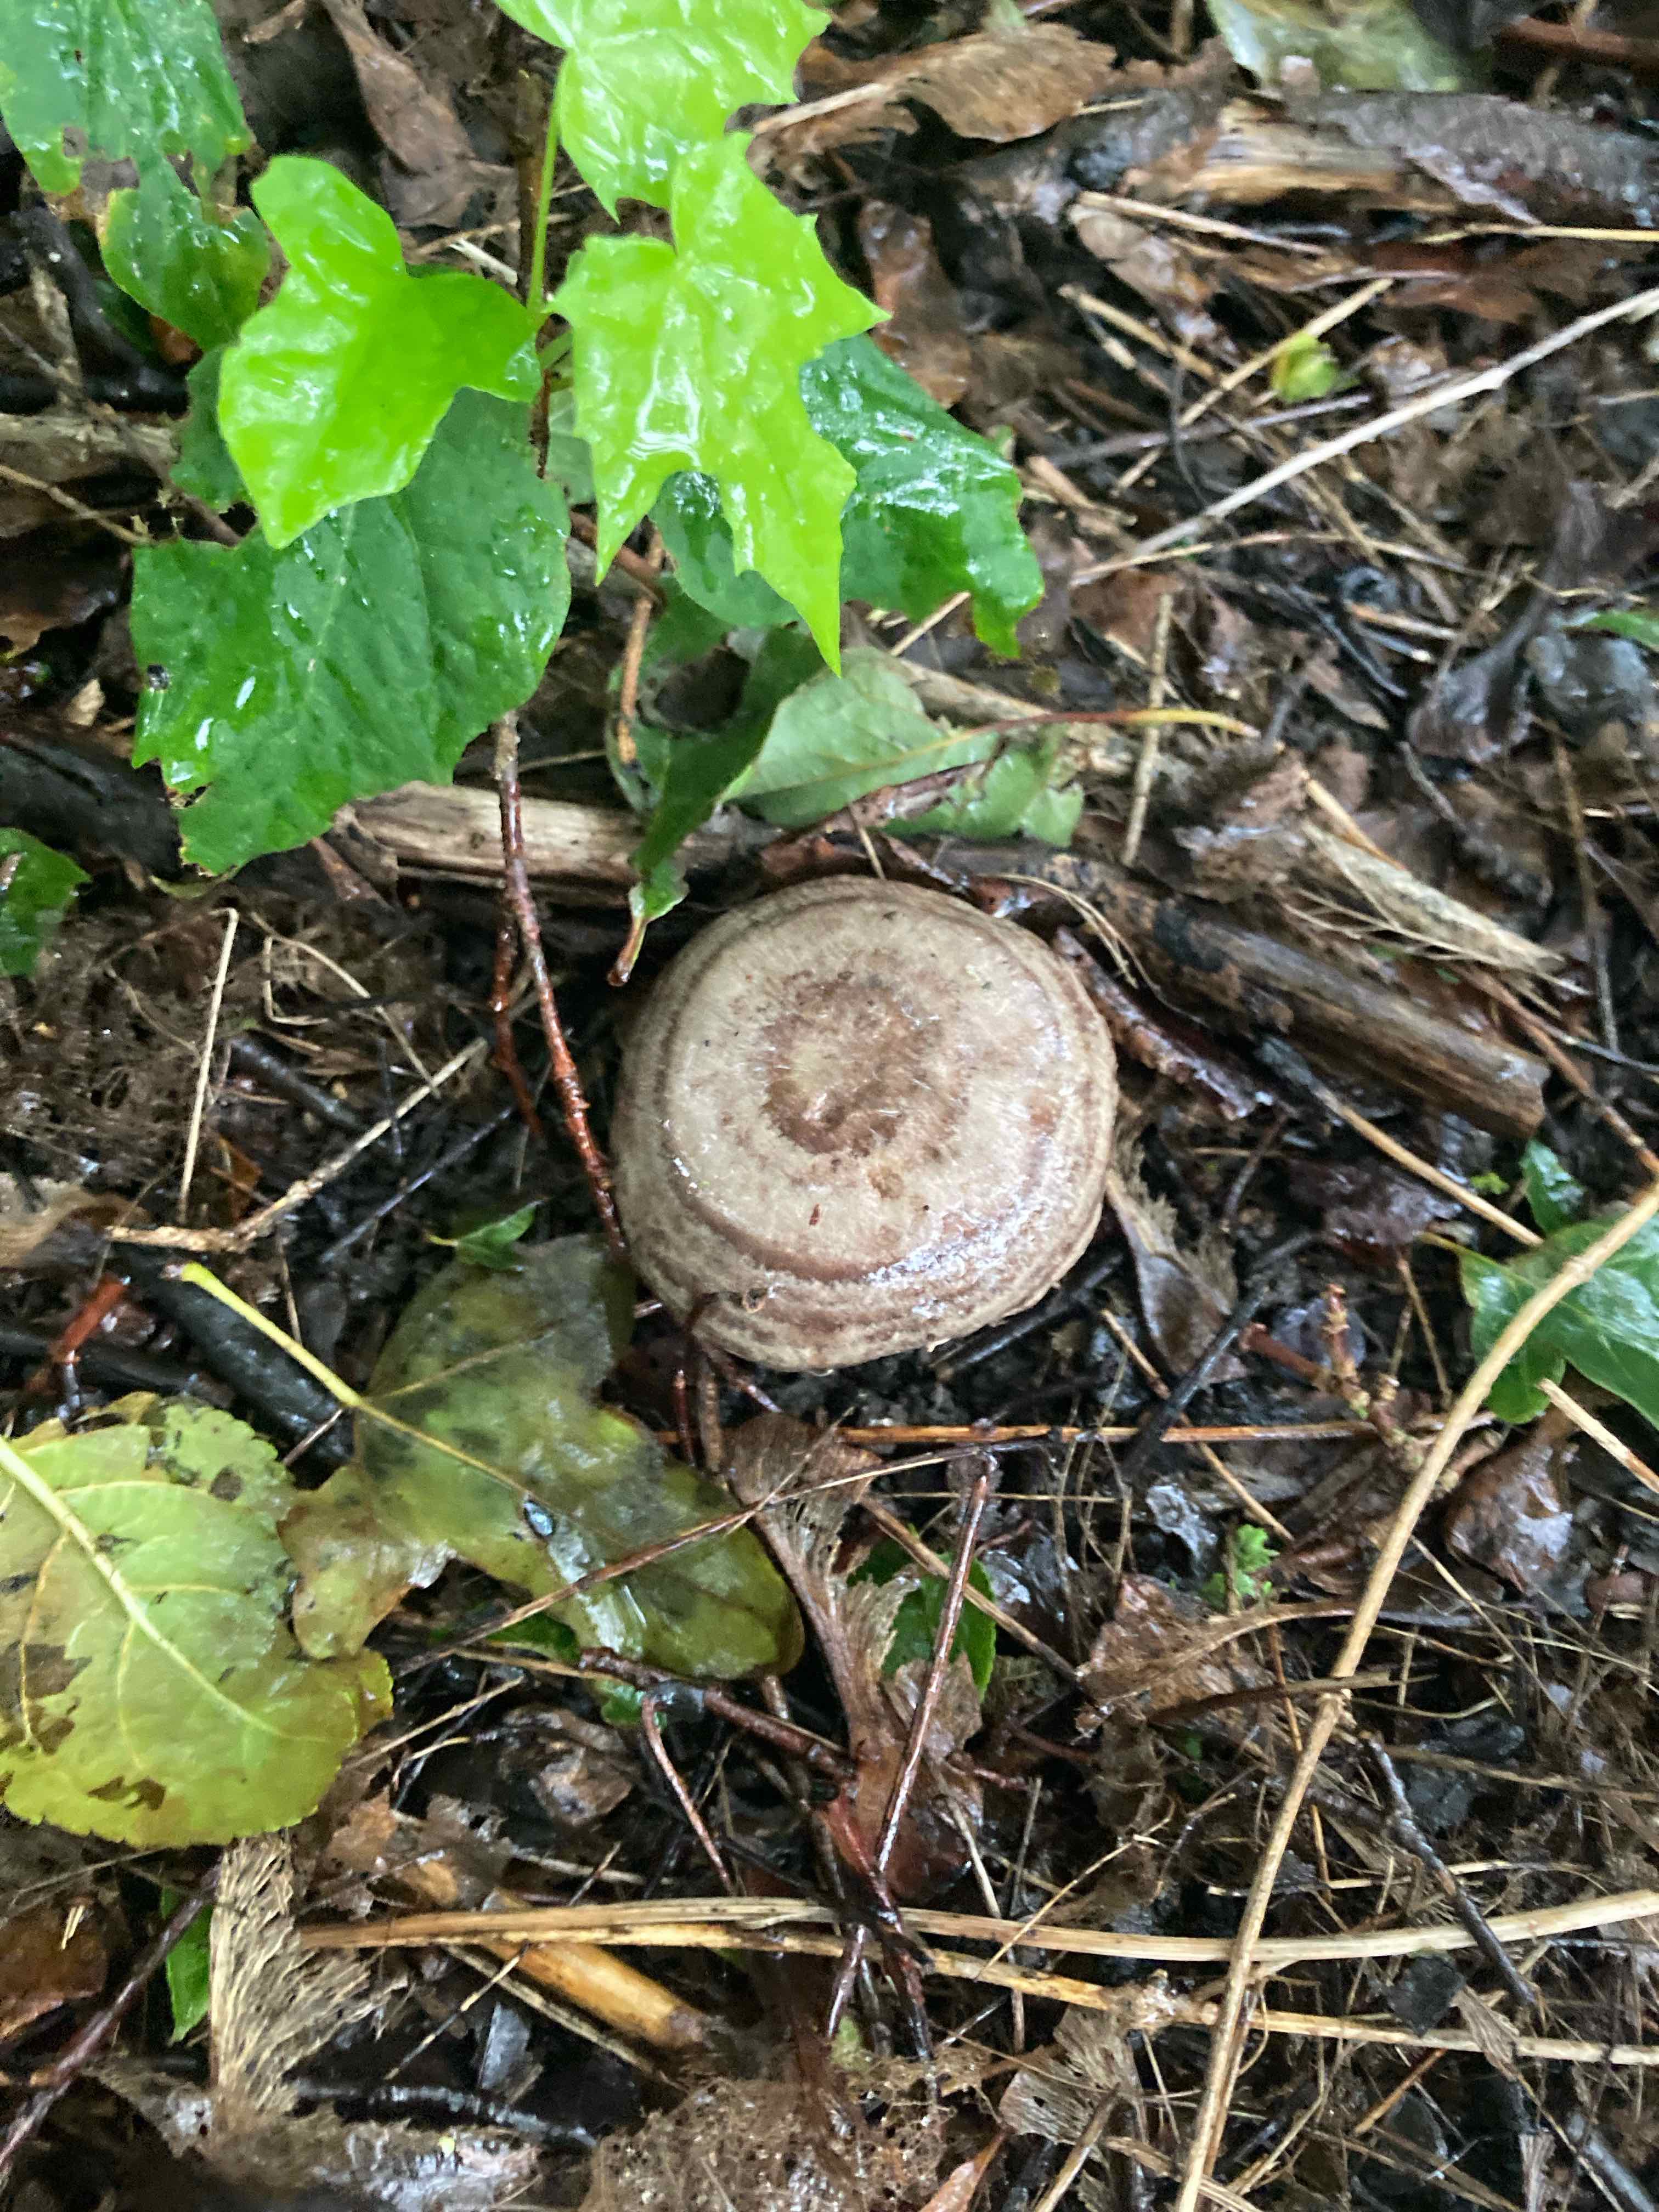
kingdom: Fungi
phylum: Basidiomycota
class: Agaricomycetes
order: Russulales
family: Russulaceae
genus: Lactarius
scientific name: Lactarius
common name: mælkehat
